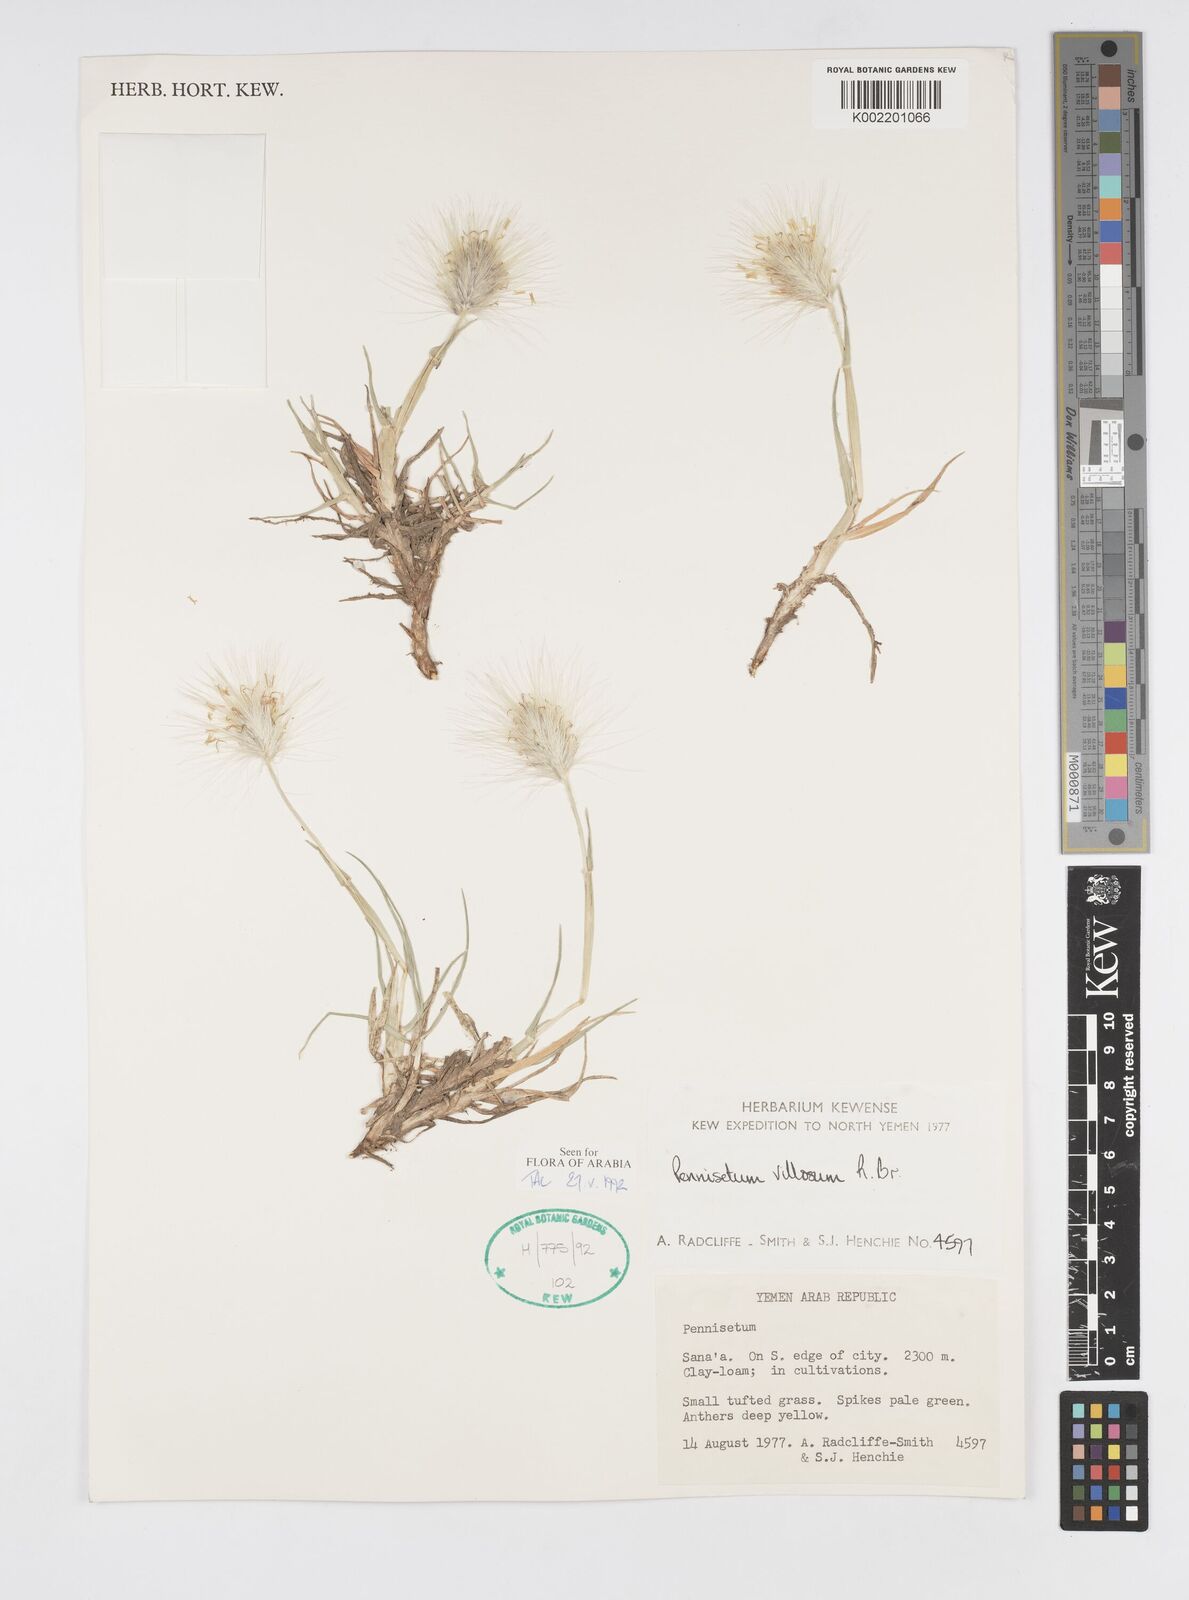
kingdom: Plantae
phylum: Tracheophyta
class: Liliopsida
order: Poales
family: Poaceae
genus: Cenchrus
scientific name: Cenchrus longisetus
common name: Feathertop
